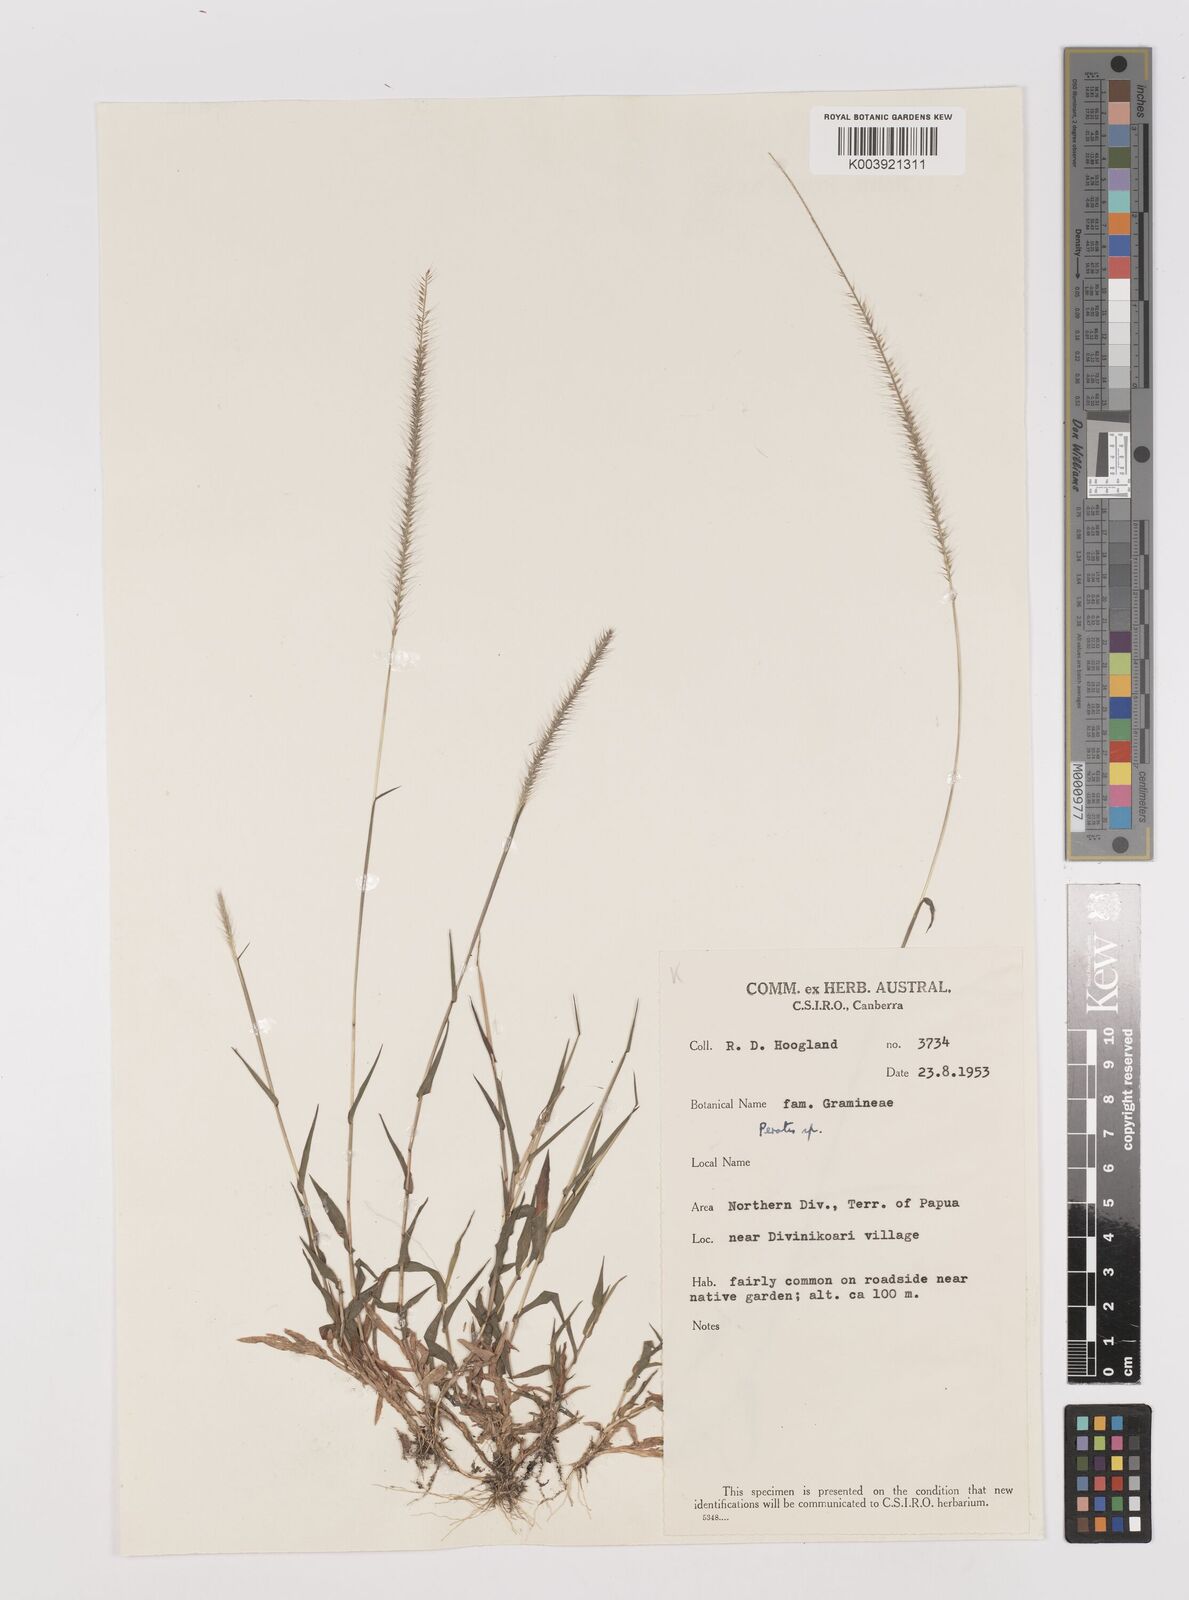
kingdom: Plantae
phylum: Tracheophyta
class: Liliopsida
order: Poales
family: Poaceae
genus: Perotis
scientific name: Perotis indica
